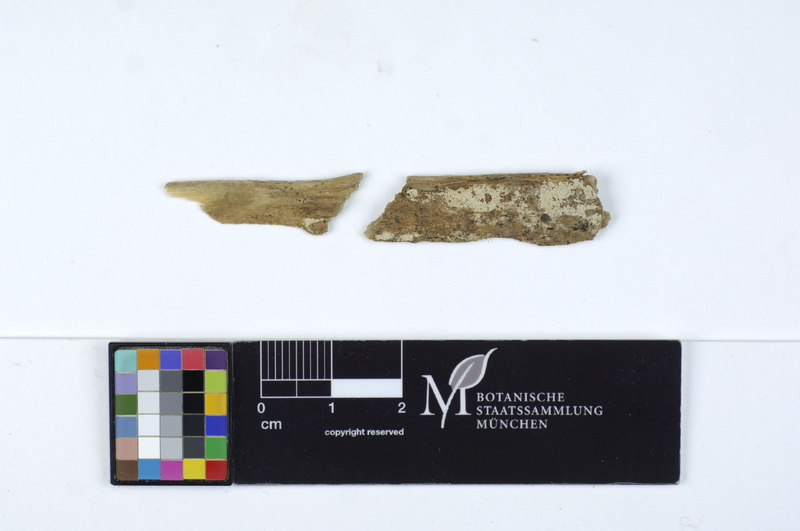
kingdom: Plantae
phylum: Tracheophyta
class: Magnoliopsida
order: Malpighiales
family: Salicaceae
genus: Populus
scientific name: Populus
